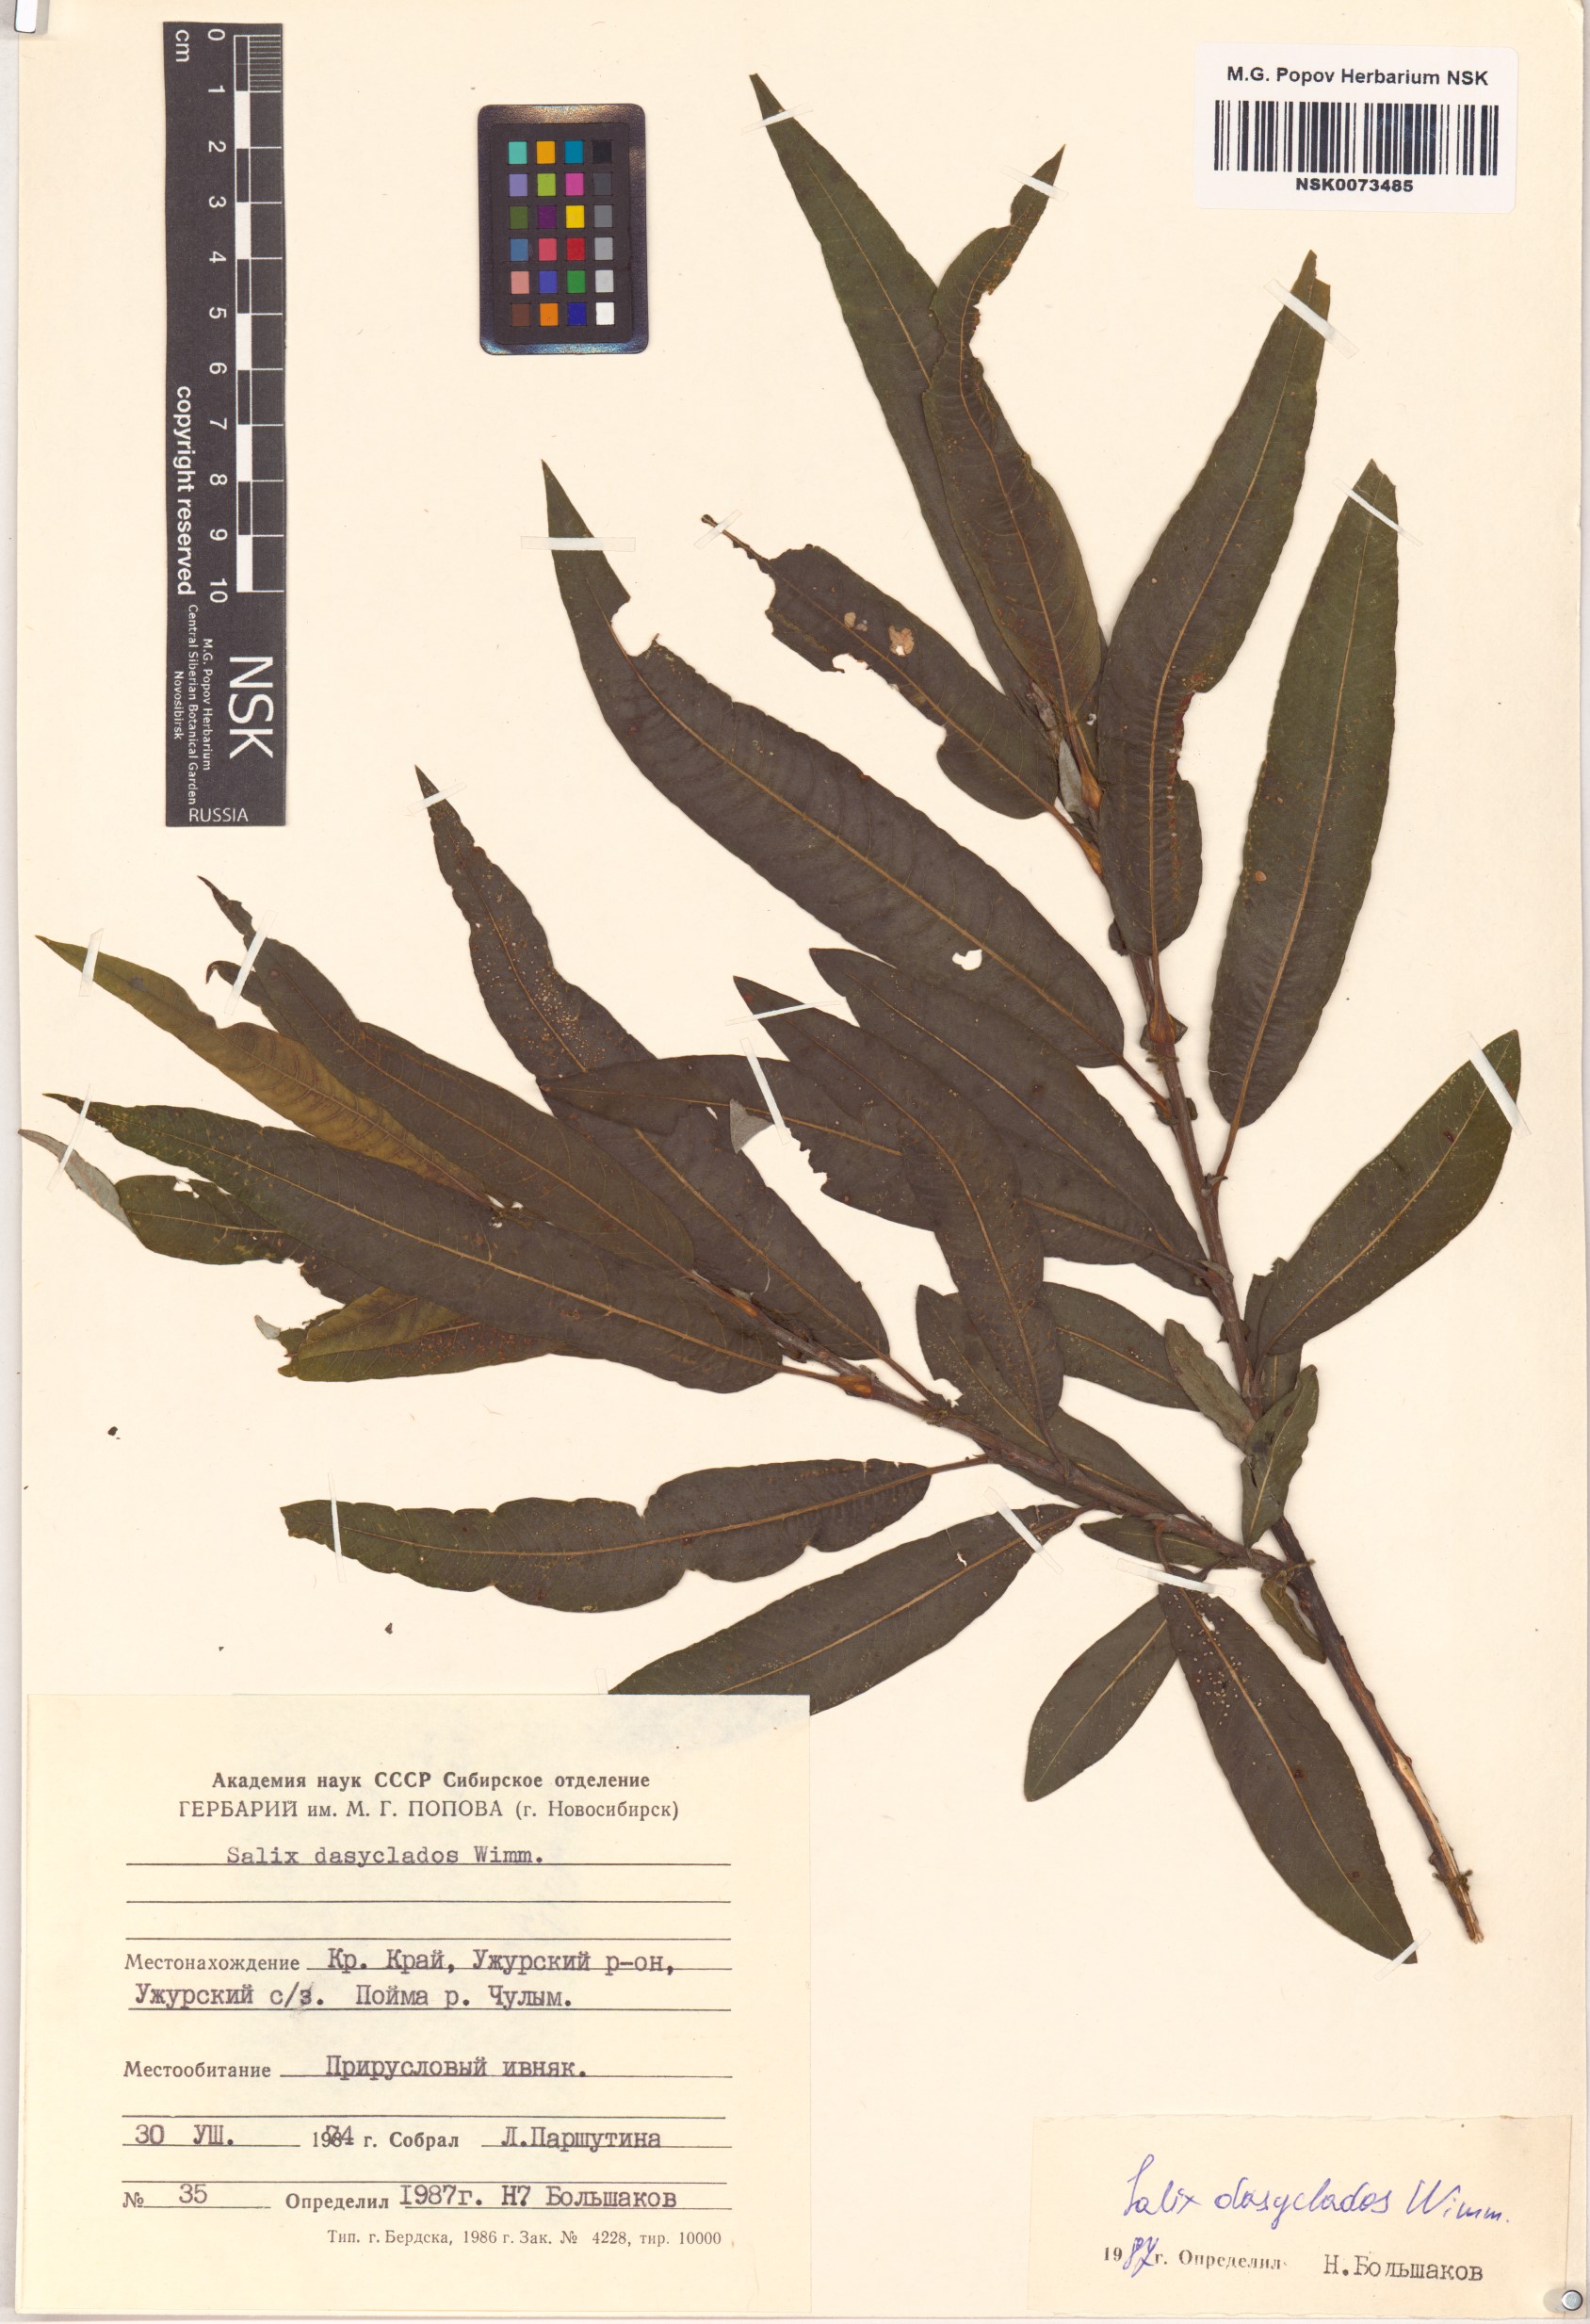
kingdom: Plantae
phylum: Tracheophyta
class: Magnoliopsida
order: Malpighiales
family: Salicaceae
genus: Salix
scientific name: Salix gmelinii
